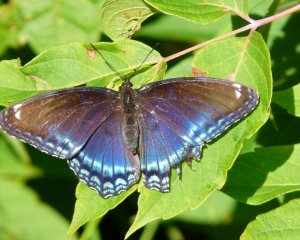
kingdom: Animalia
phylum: Arthropoda
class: Insecta
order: Lepidoptera
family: Nymphalidae
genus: Limenitis
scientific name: Limenitis astyanax
